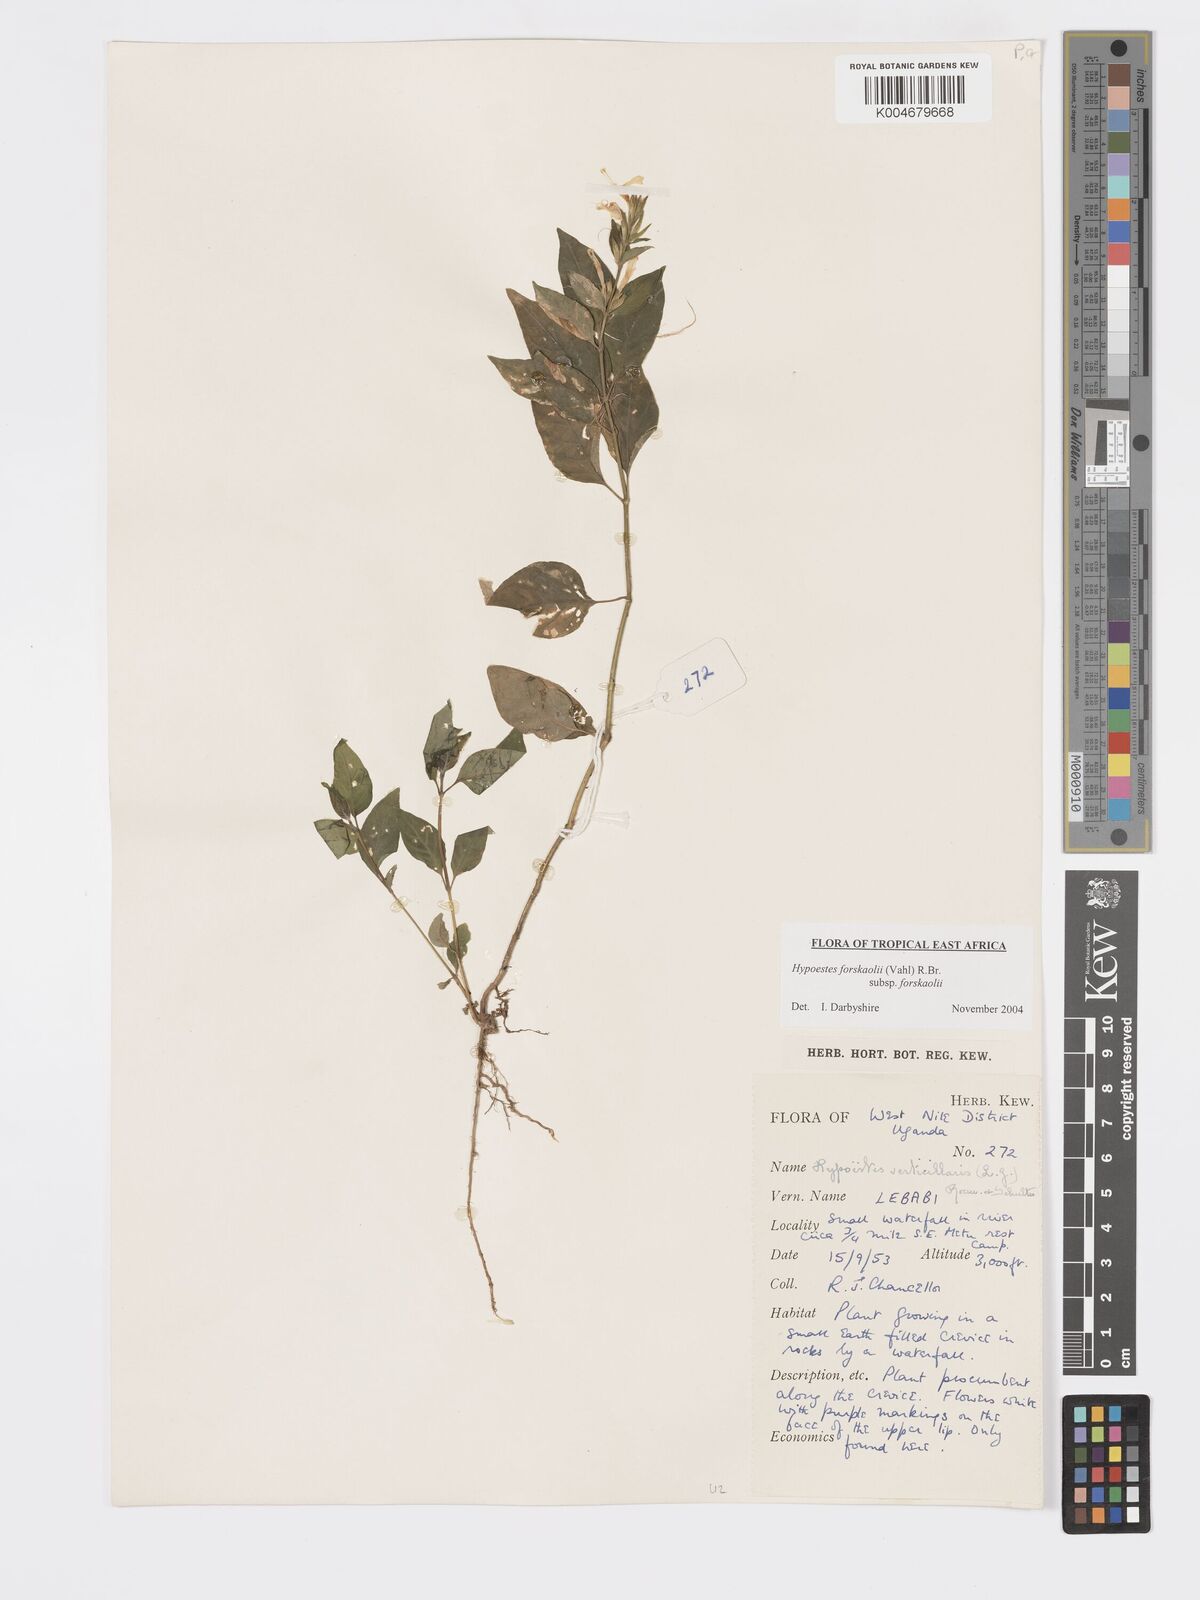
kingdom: Plantae
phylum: Tracheophyta
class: Magnoliopsida
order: Lamiales
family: Acanthaceae
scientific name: Acanthaceae
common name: Acanthaceae
